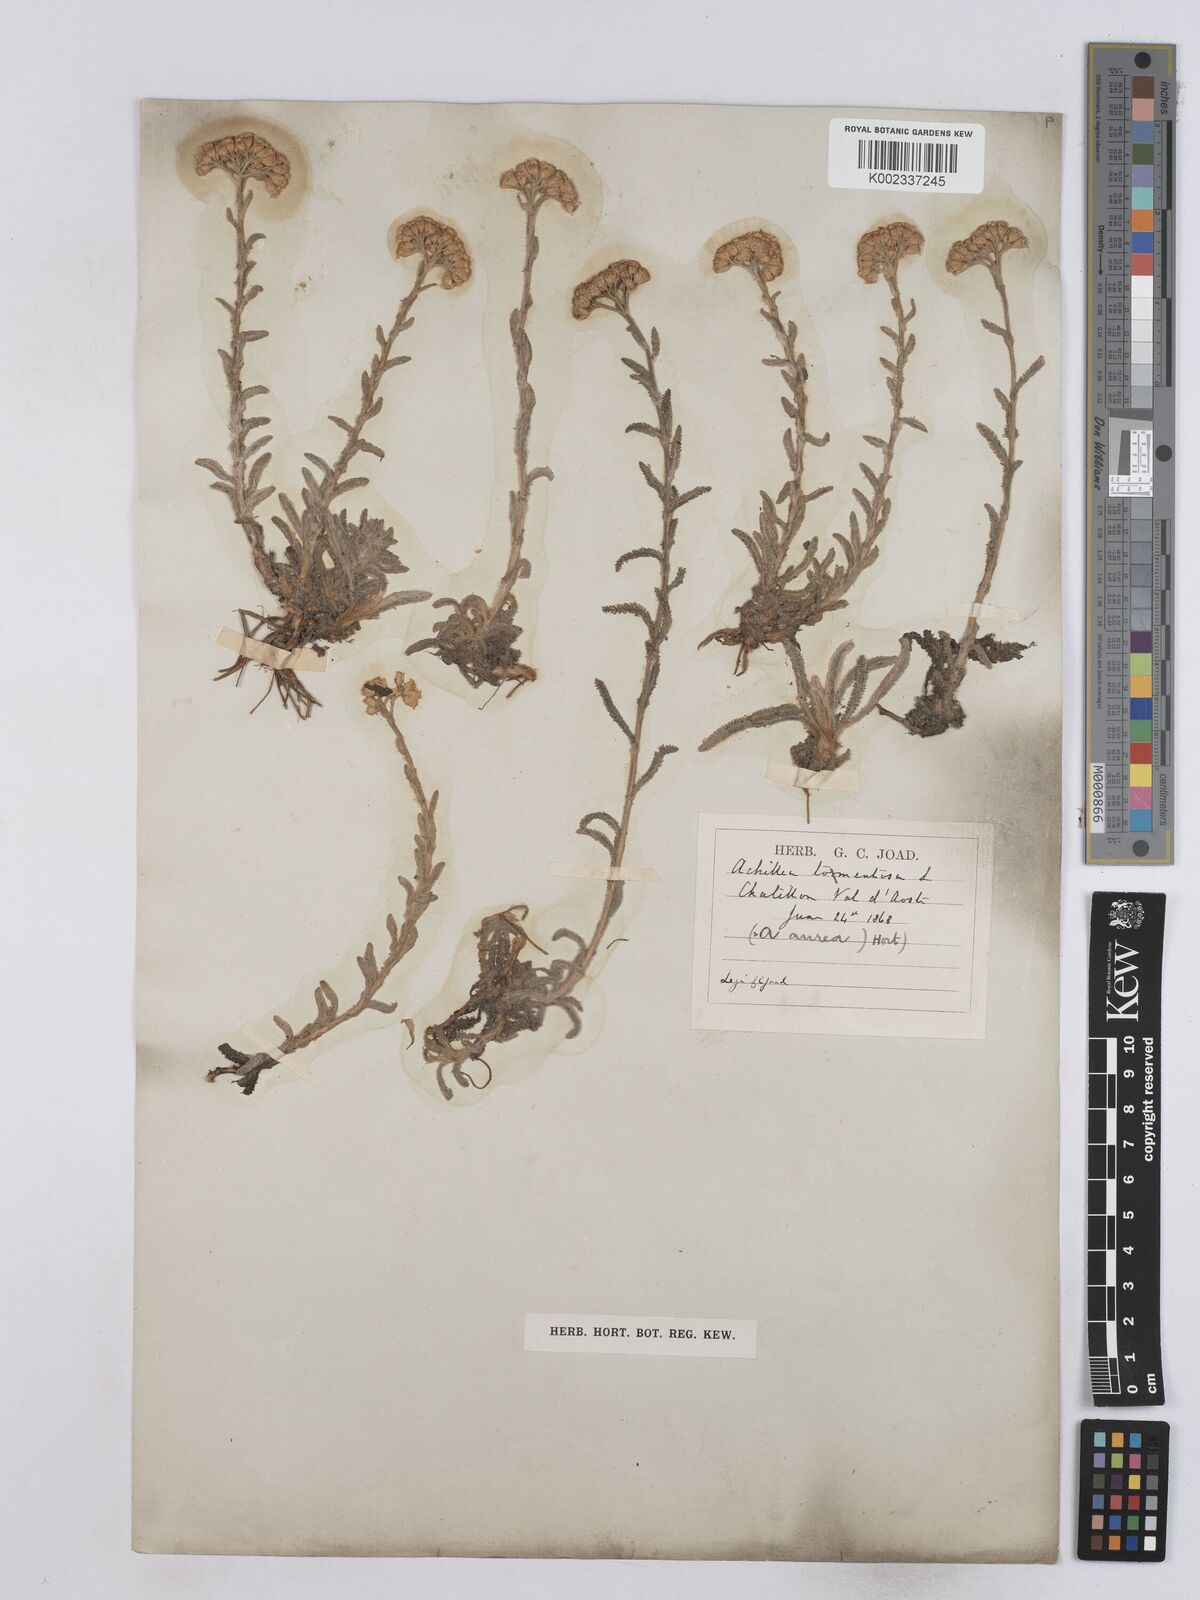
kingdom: Plantae
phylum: Tracheophyta
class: Magnoliopsida
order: Asterales
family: Asteraceae
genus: Achillea
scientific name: Achillea tomentosa
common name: Yellow milfoil
